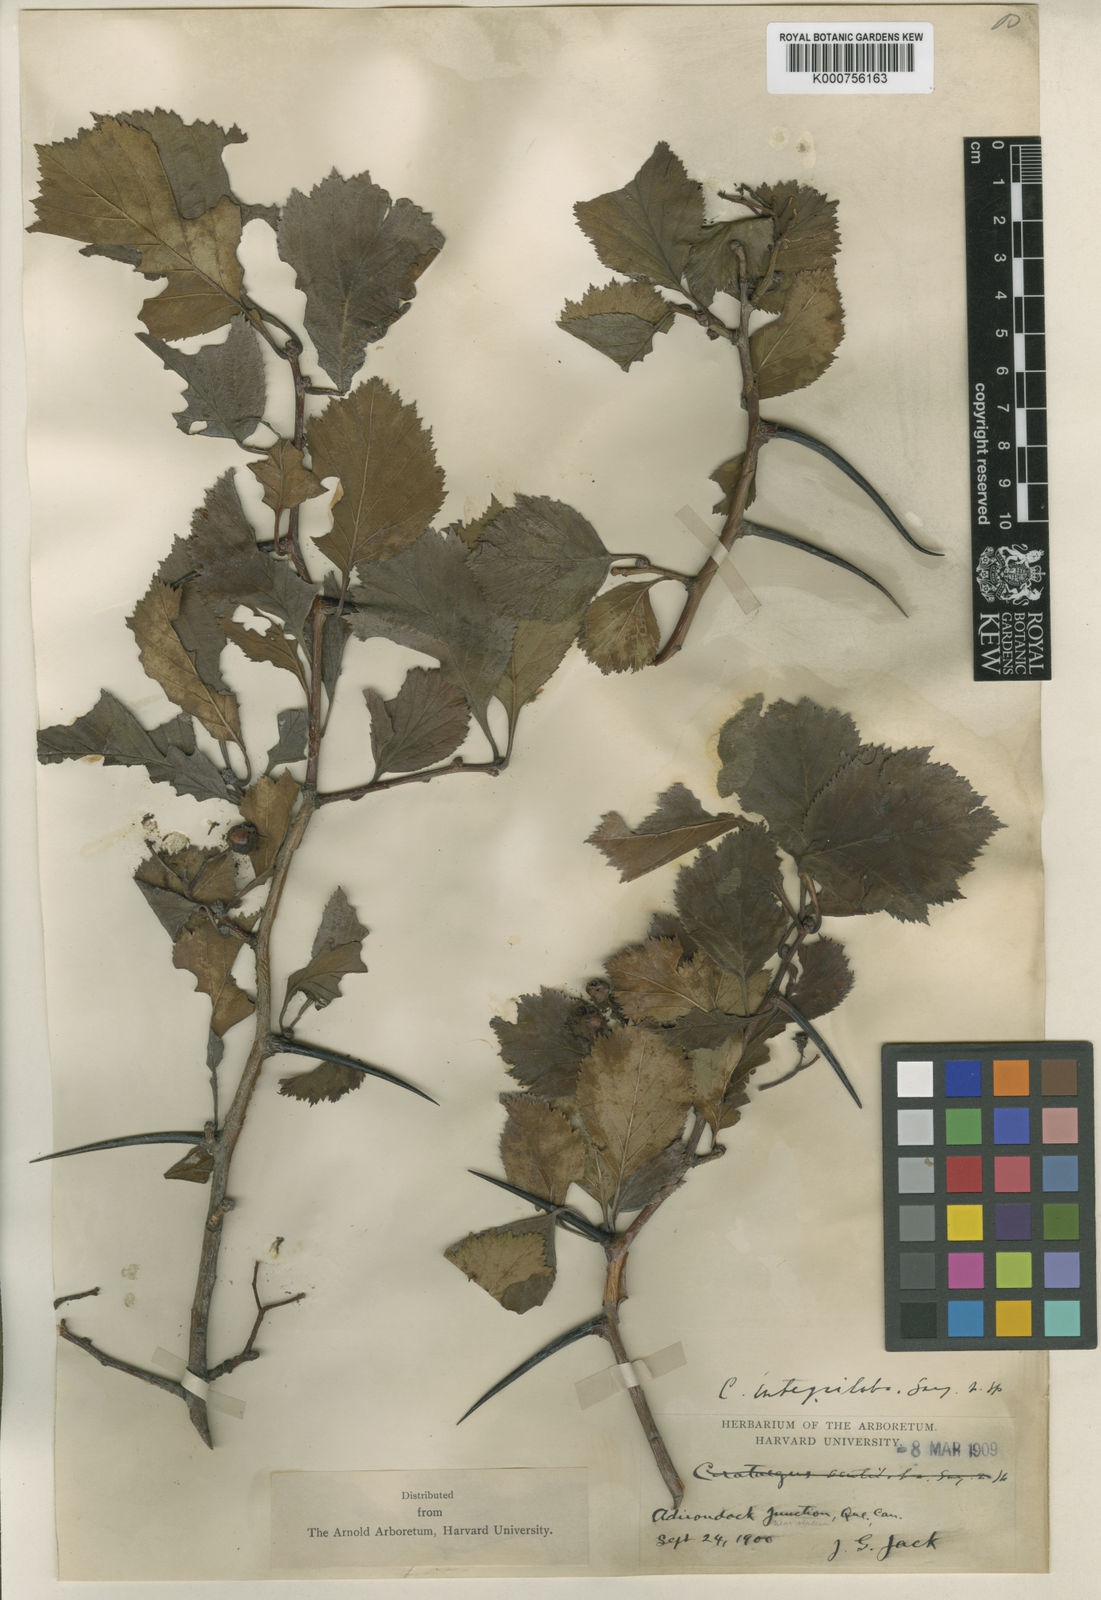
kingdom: Plantae
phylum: Tracheophyta
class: Magnoliopsida
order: Rosales
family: Rosaceae
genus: Crataegus
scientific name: Crataegus succulenta
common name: Fleshy hawthorn
